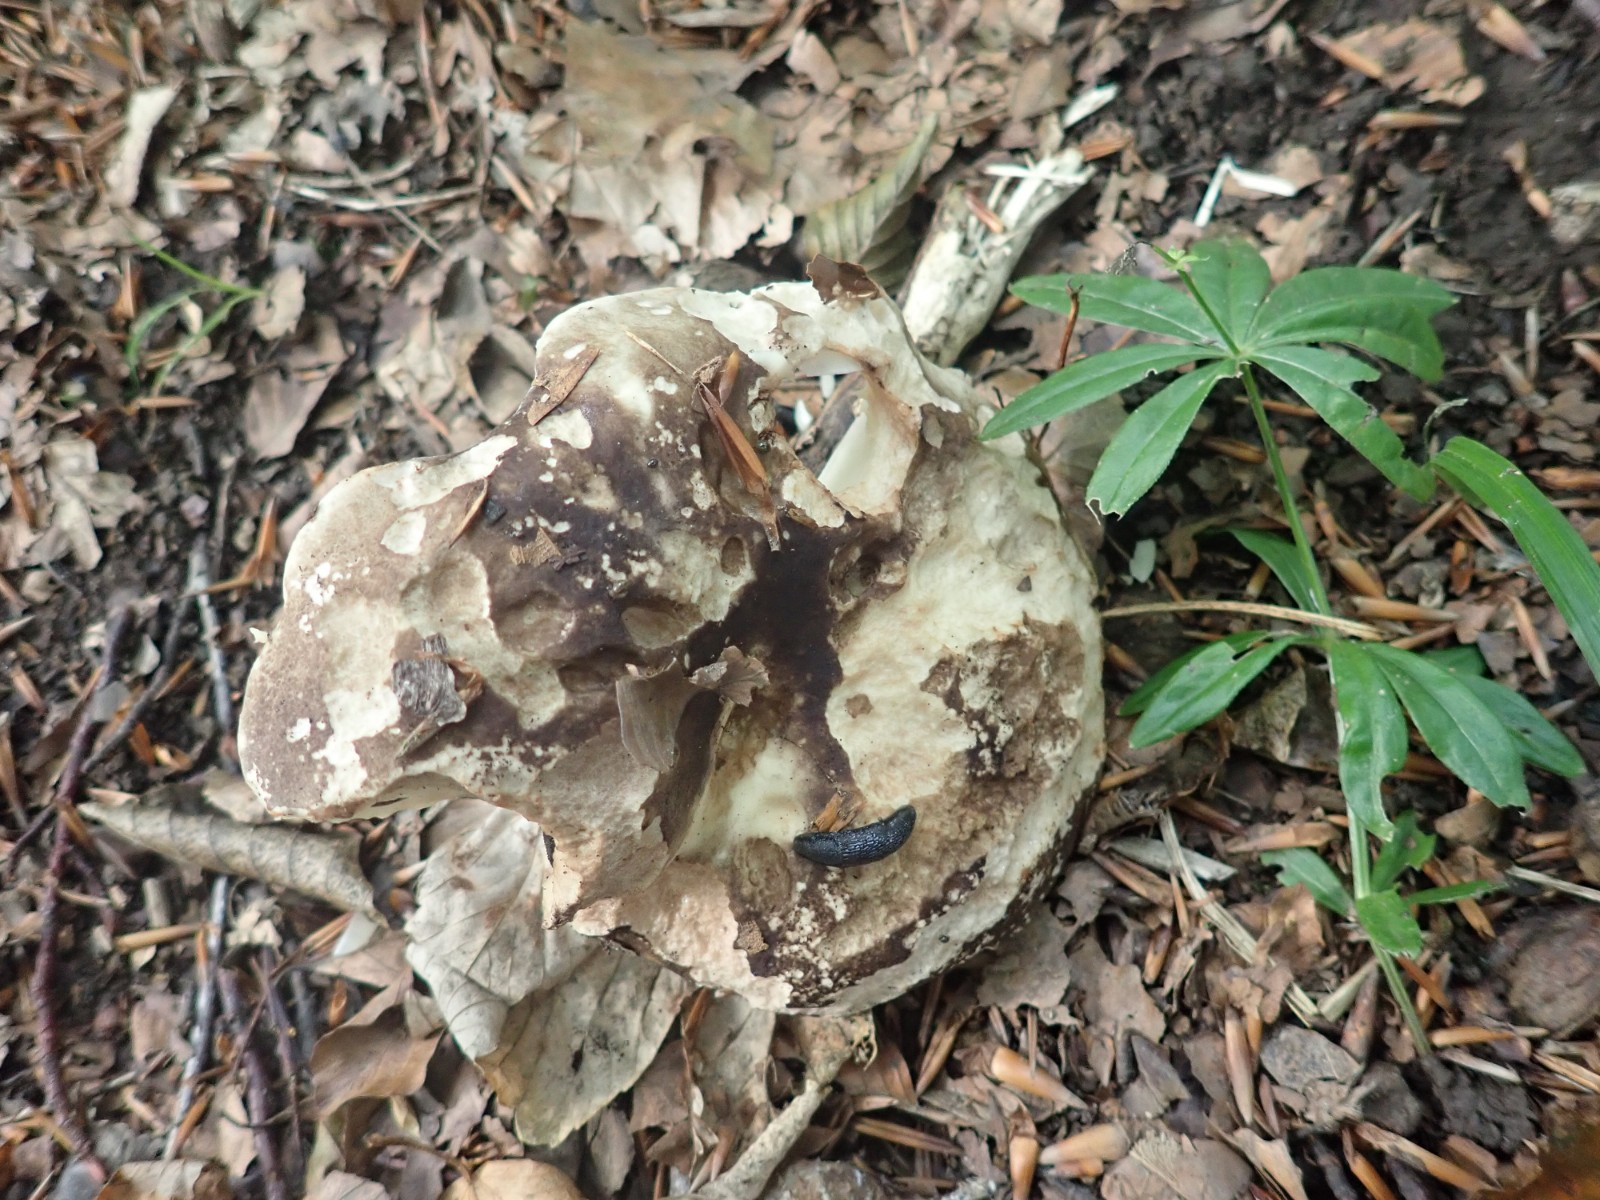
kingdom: Fungi
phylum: Basidiomycota
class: Agaricomycetes
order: Russulales
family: Russulaceae
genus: Russula
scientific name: Russula adusta
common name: sværtende skørhat
